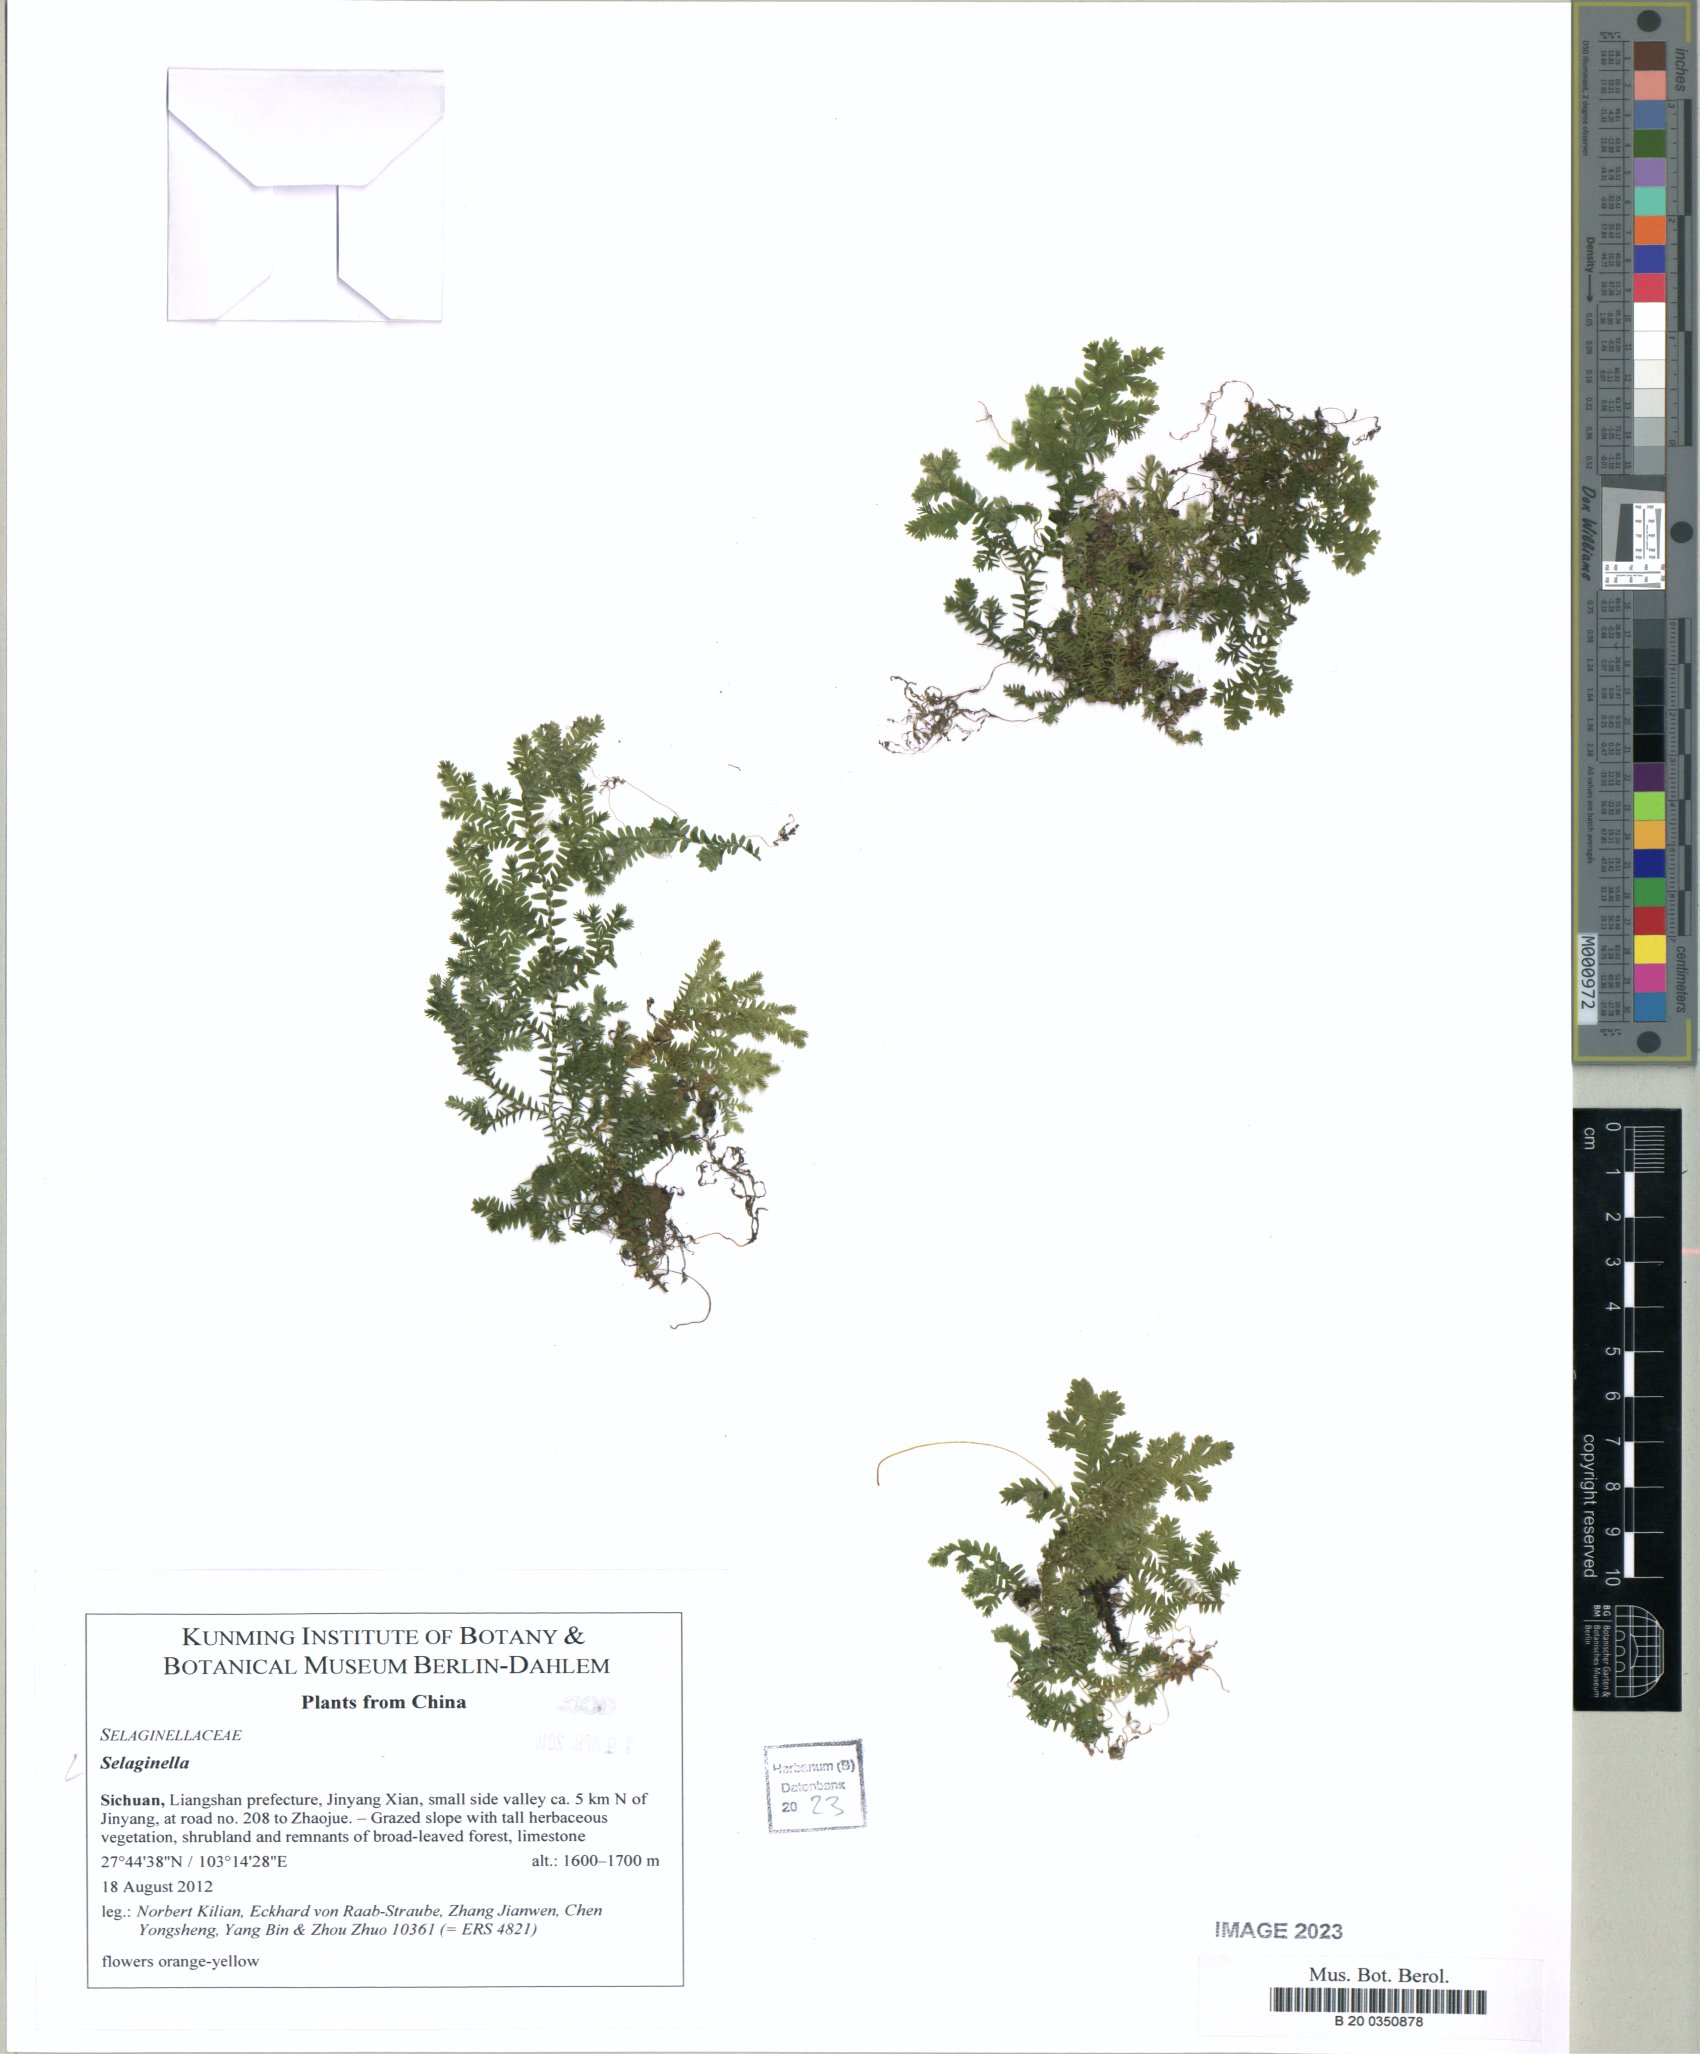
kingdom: Plantae
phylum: Tracheophyta
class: Lycopodiopsida
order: Selaginellales
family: Selaginellaceae
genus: Selaginella
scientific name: Selaginella
